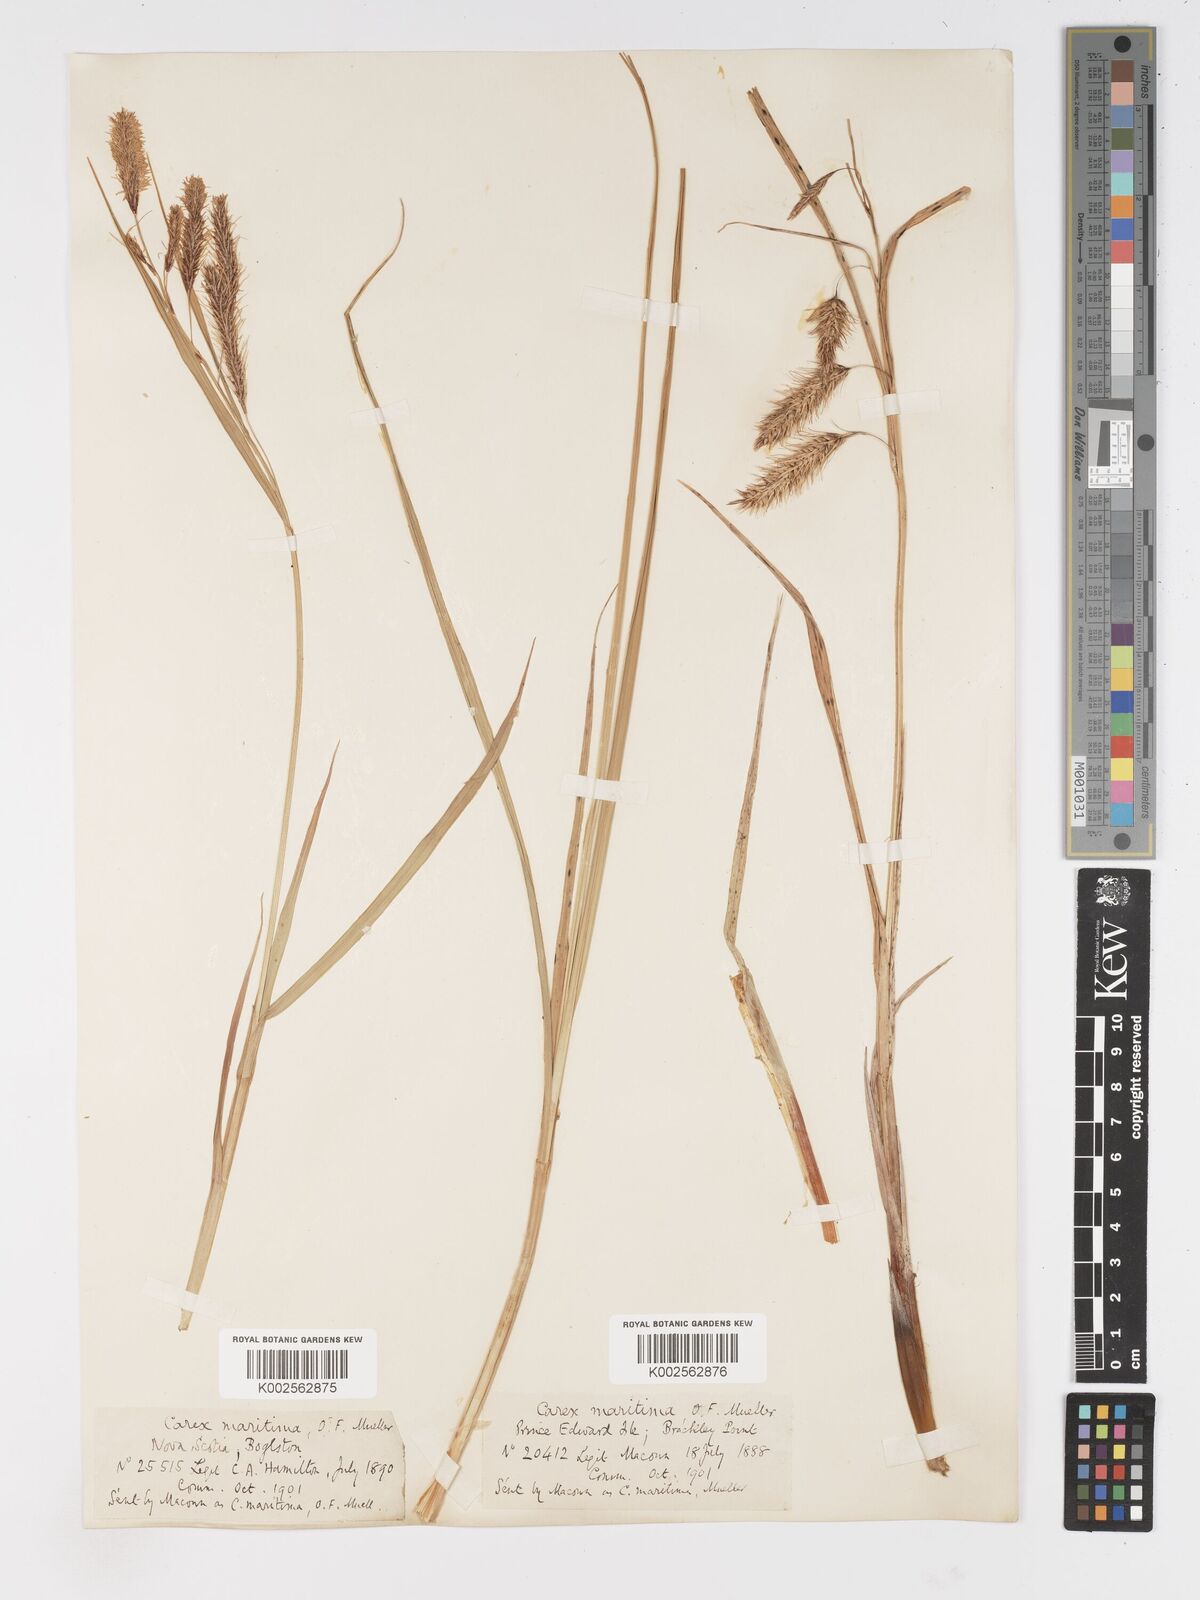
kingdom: Plantae
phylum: Tracheophyta
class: Liliopsida
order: Poales
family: Cyperaceae
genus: Carex
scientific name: Carex paleacea
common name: Chaffy sedge
